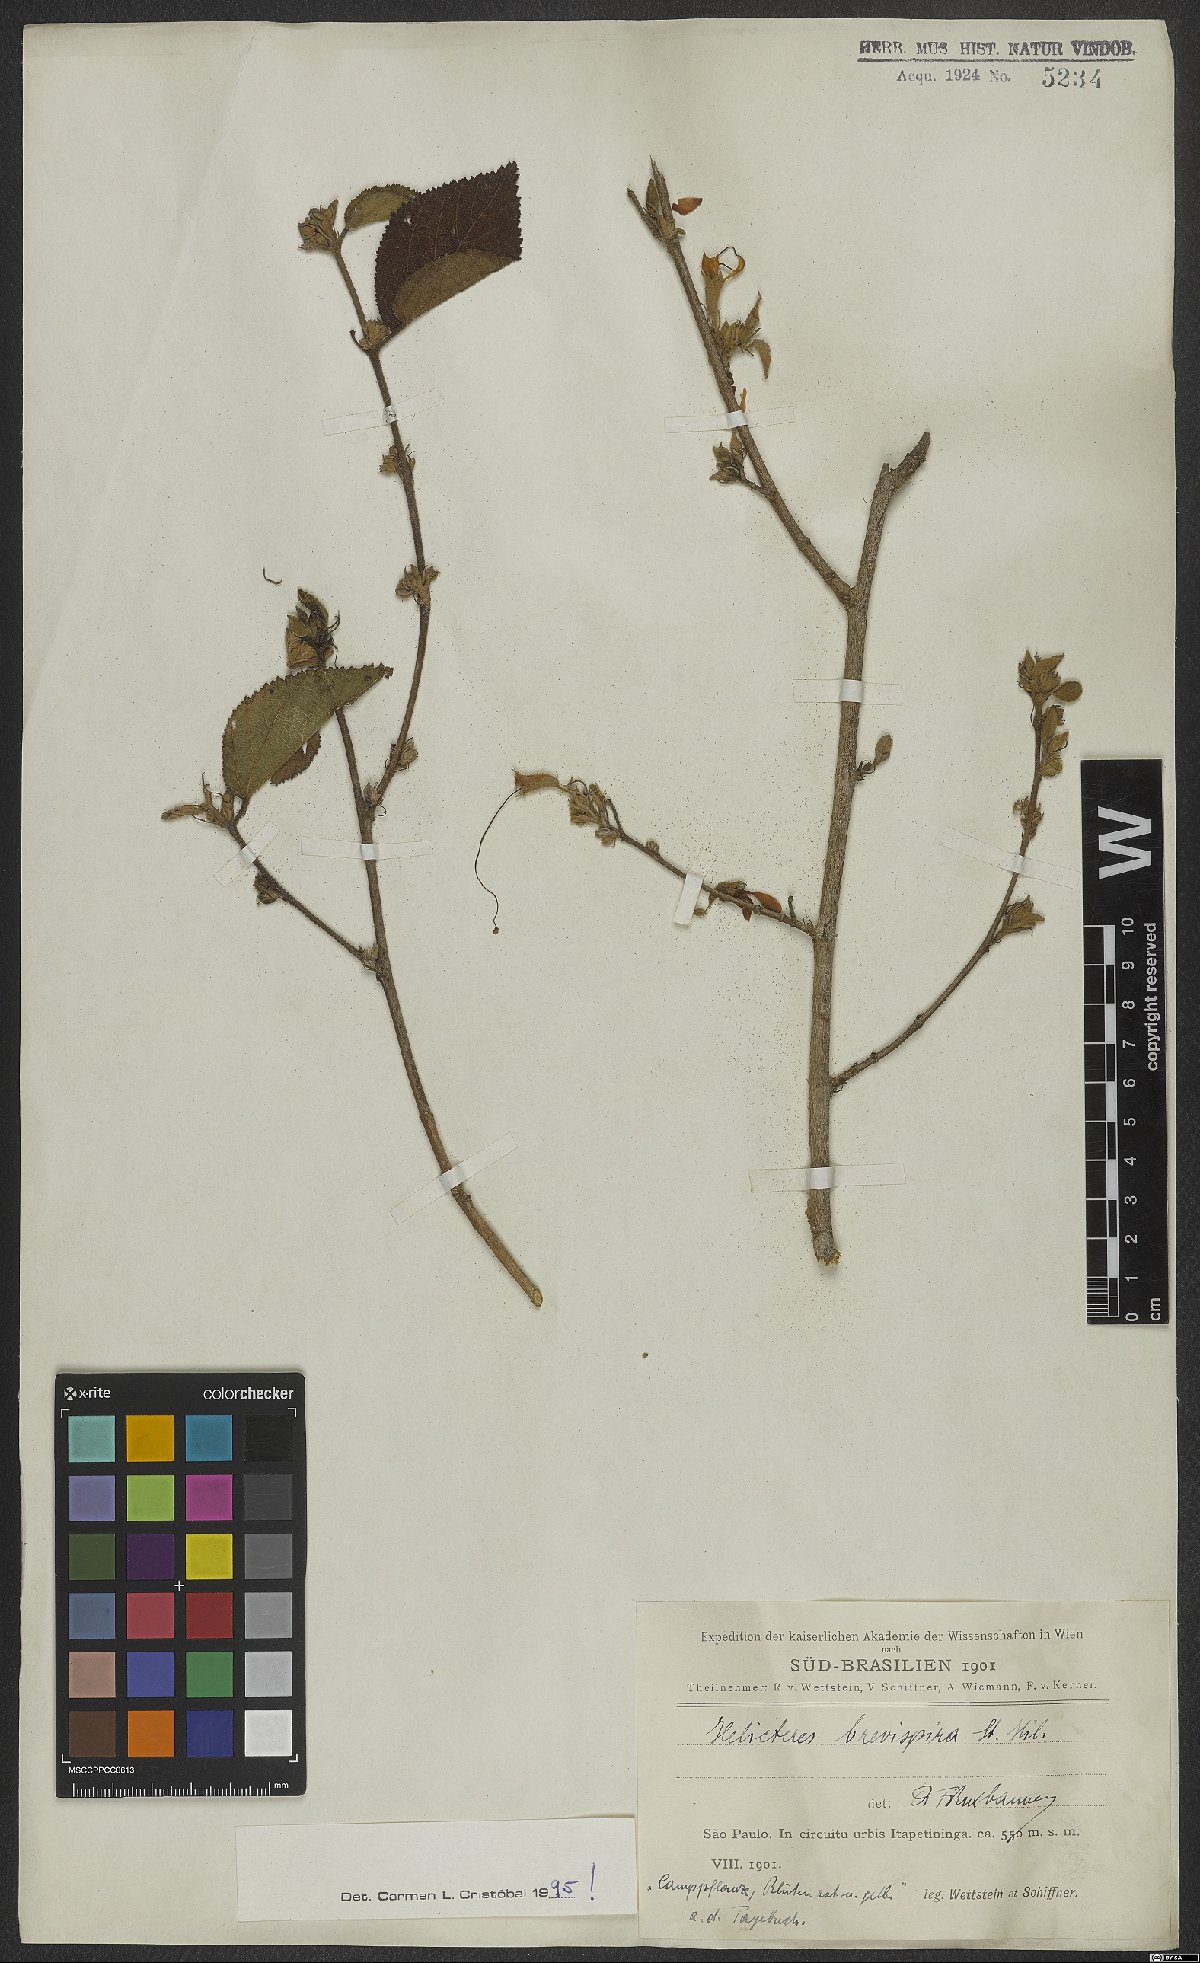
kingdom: Plantae
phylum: Tracheophyta
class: Magnoliopsida
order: Malvales
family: Malvaceae
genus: Helicteres
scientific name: Helicteres brevispira
